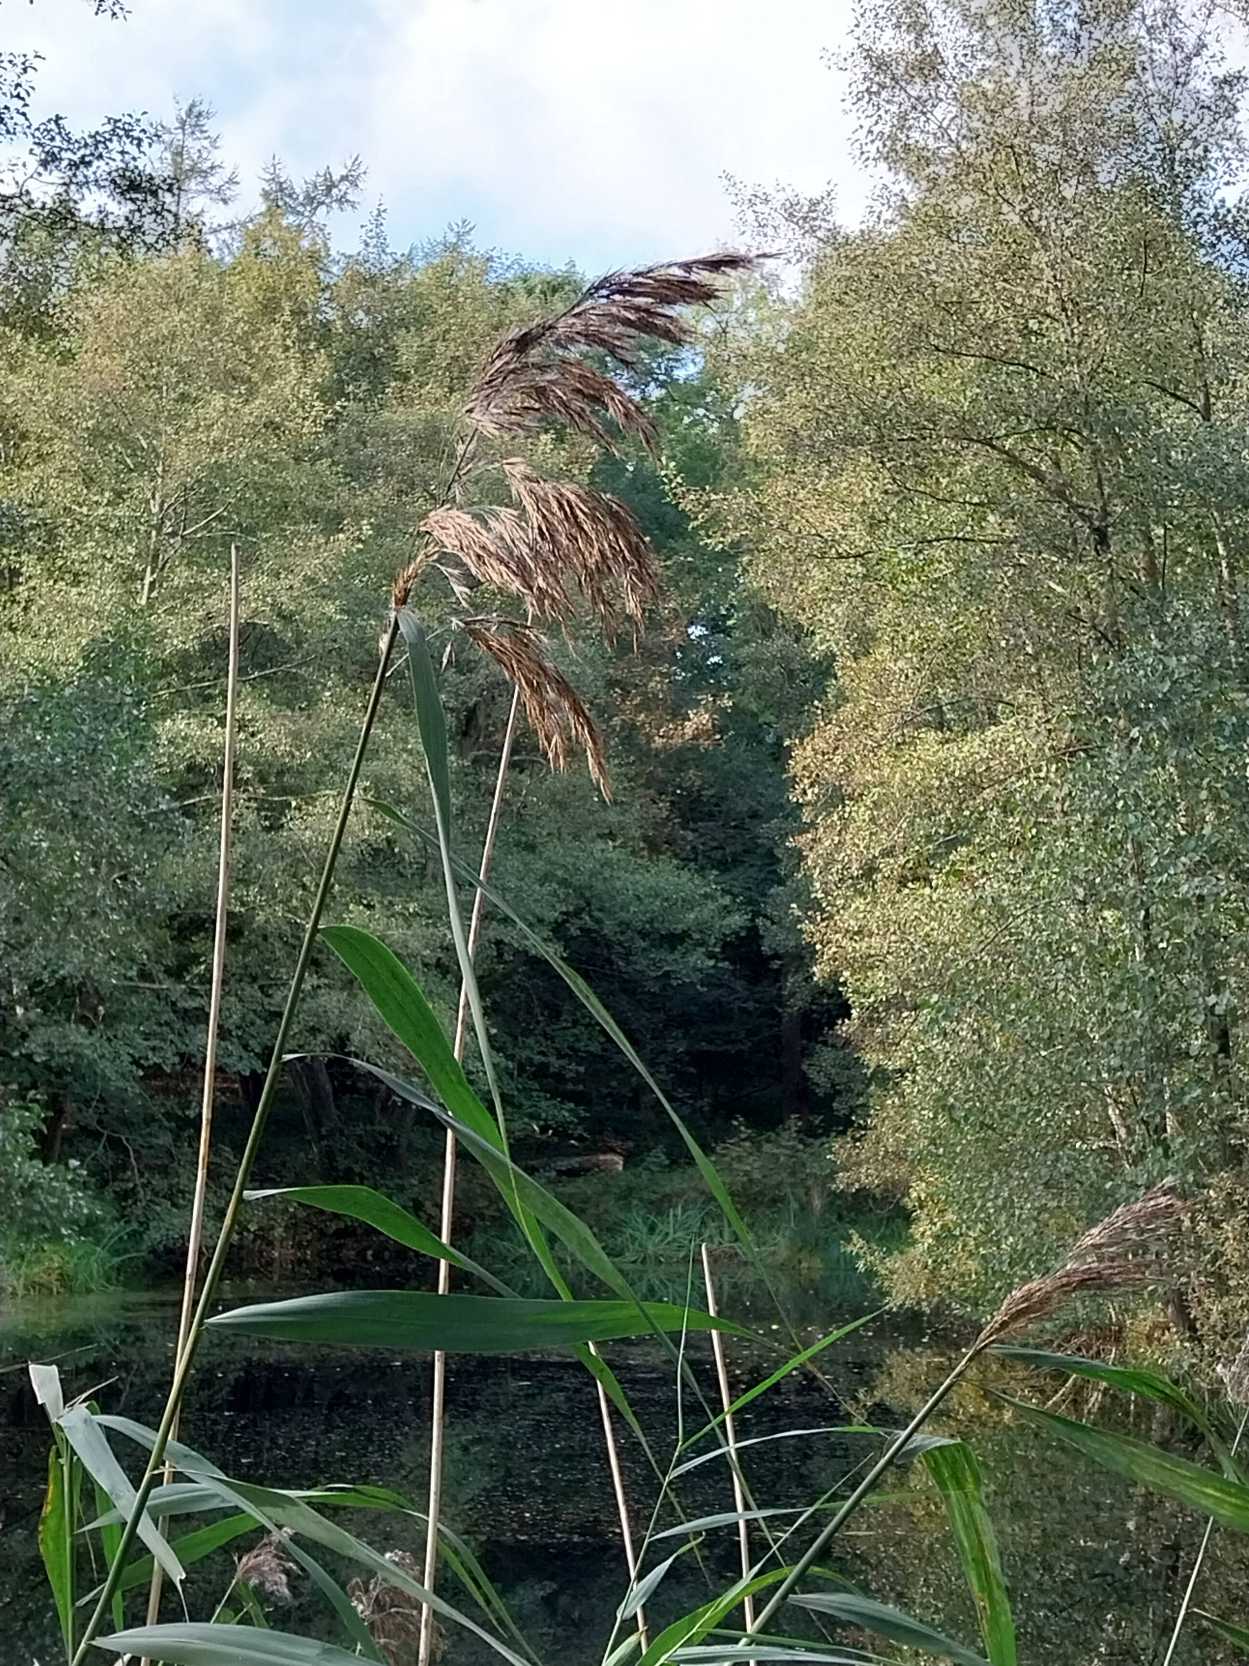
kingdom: Plantae
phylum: Tracheophyta
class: Liliopsida
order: Poales
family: Poaceae
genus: Phragmites
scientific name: Phragmites australis
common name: Tagrør
